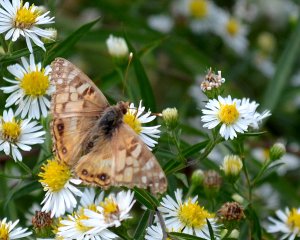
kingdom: Animalia
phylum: Arthropoda
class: Insecta
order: Lepidoptera
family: Nymphalidae
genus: Vanessa
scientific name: Vanessa virginiensis
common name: American Lady
